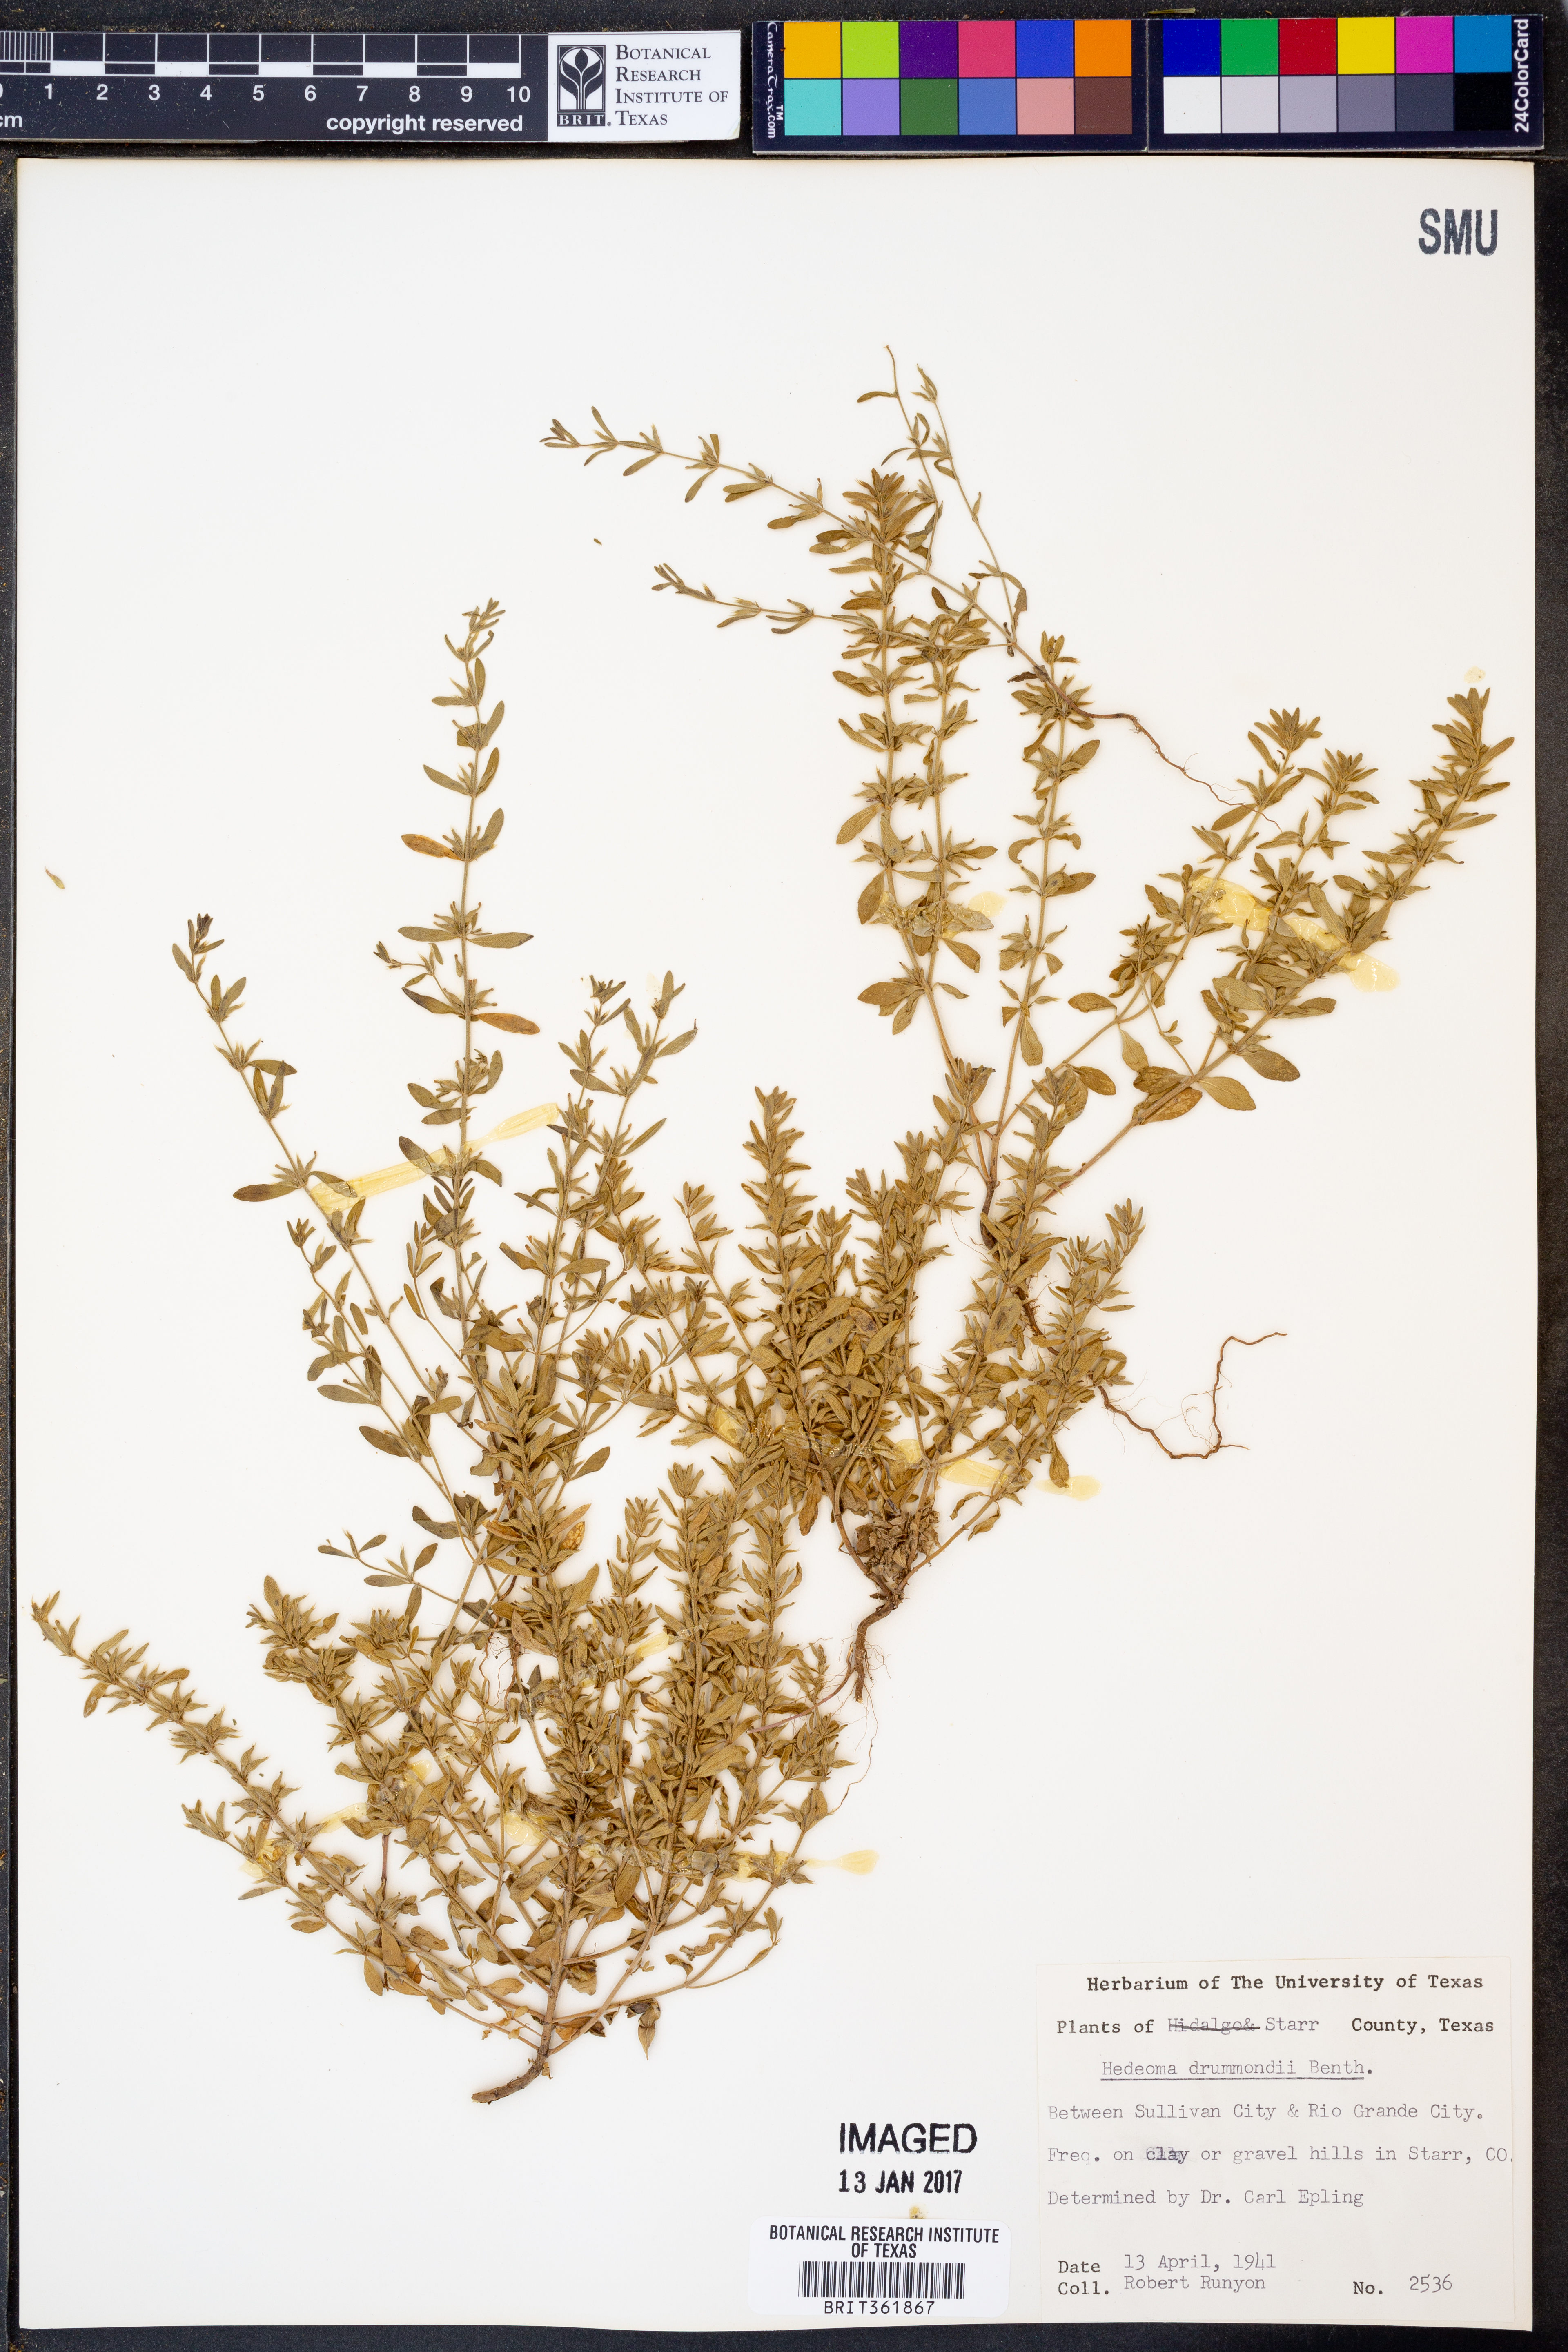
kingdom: Plantae
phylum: Tracheophyta
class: Magnoliopsida
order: Lamiales
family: Lamiaceae
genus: Hedeoma
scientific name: Hedeoma drummondii
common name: New mexico pennyroyal
